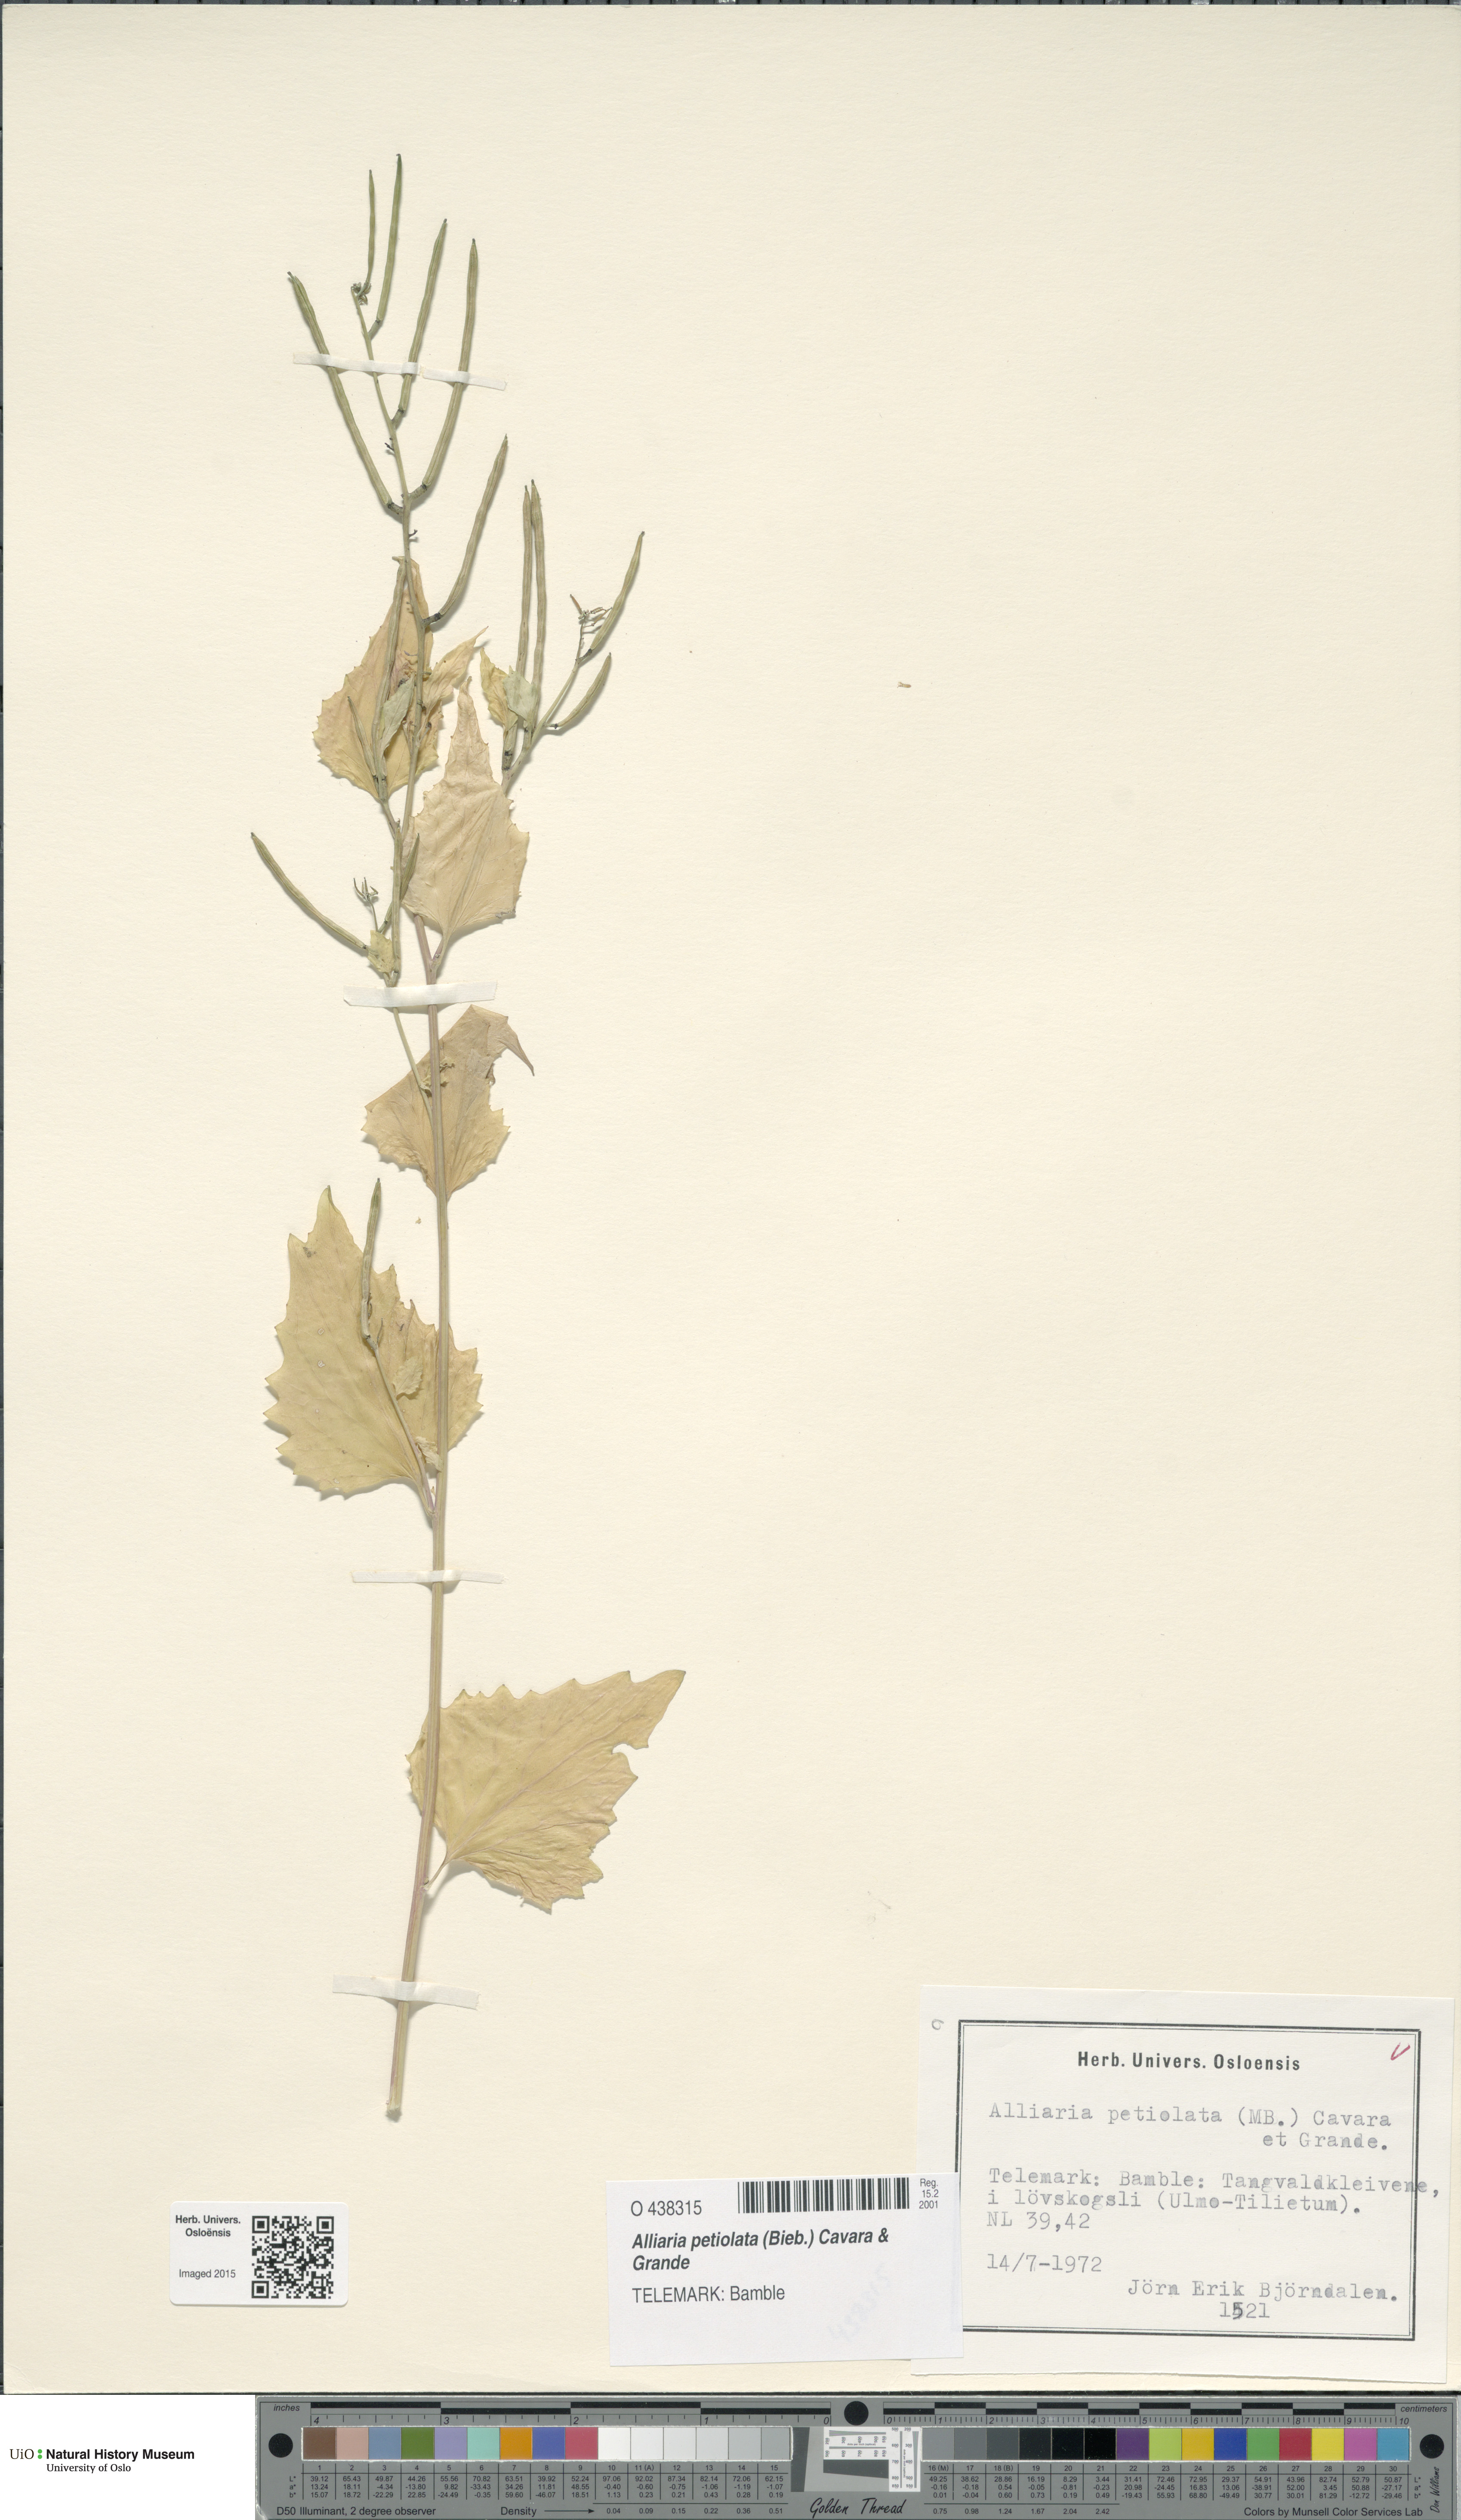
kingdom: Plantae
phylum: Tracheophyta
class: Magnoliopsida
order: Brassicales
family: Brassicaceae
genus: Alliaria
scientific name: Alliaria petiolata
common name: Garlic mustard
